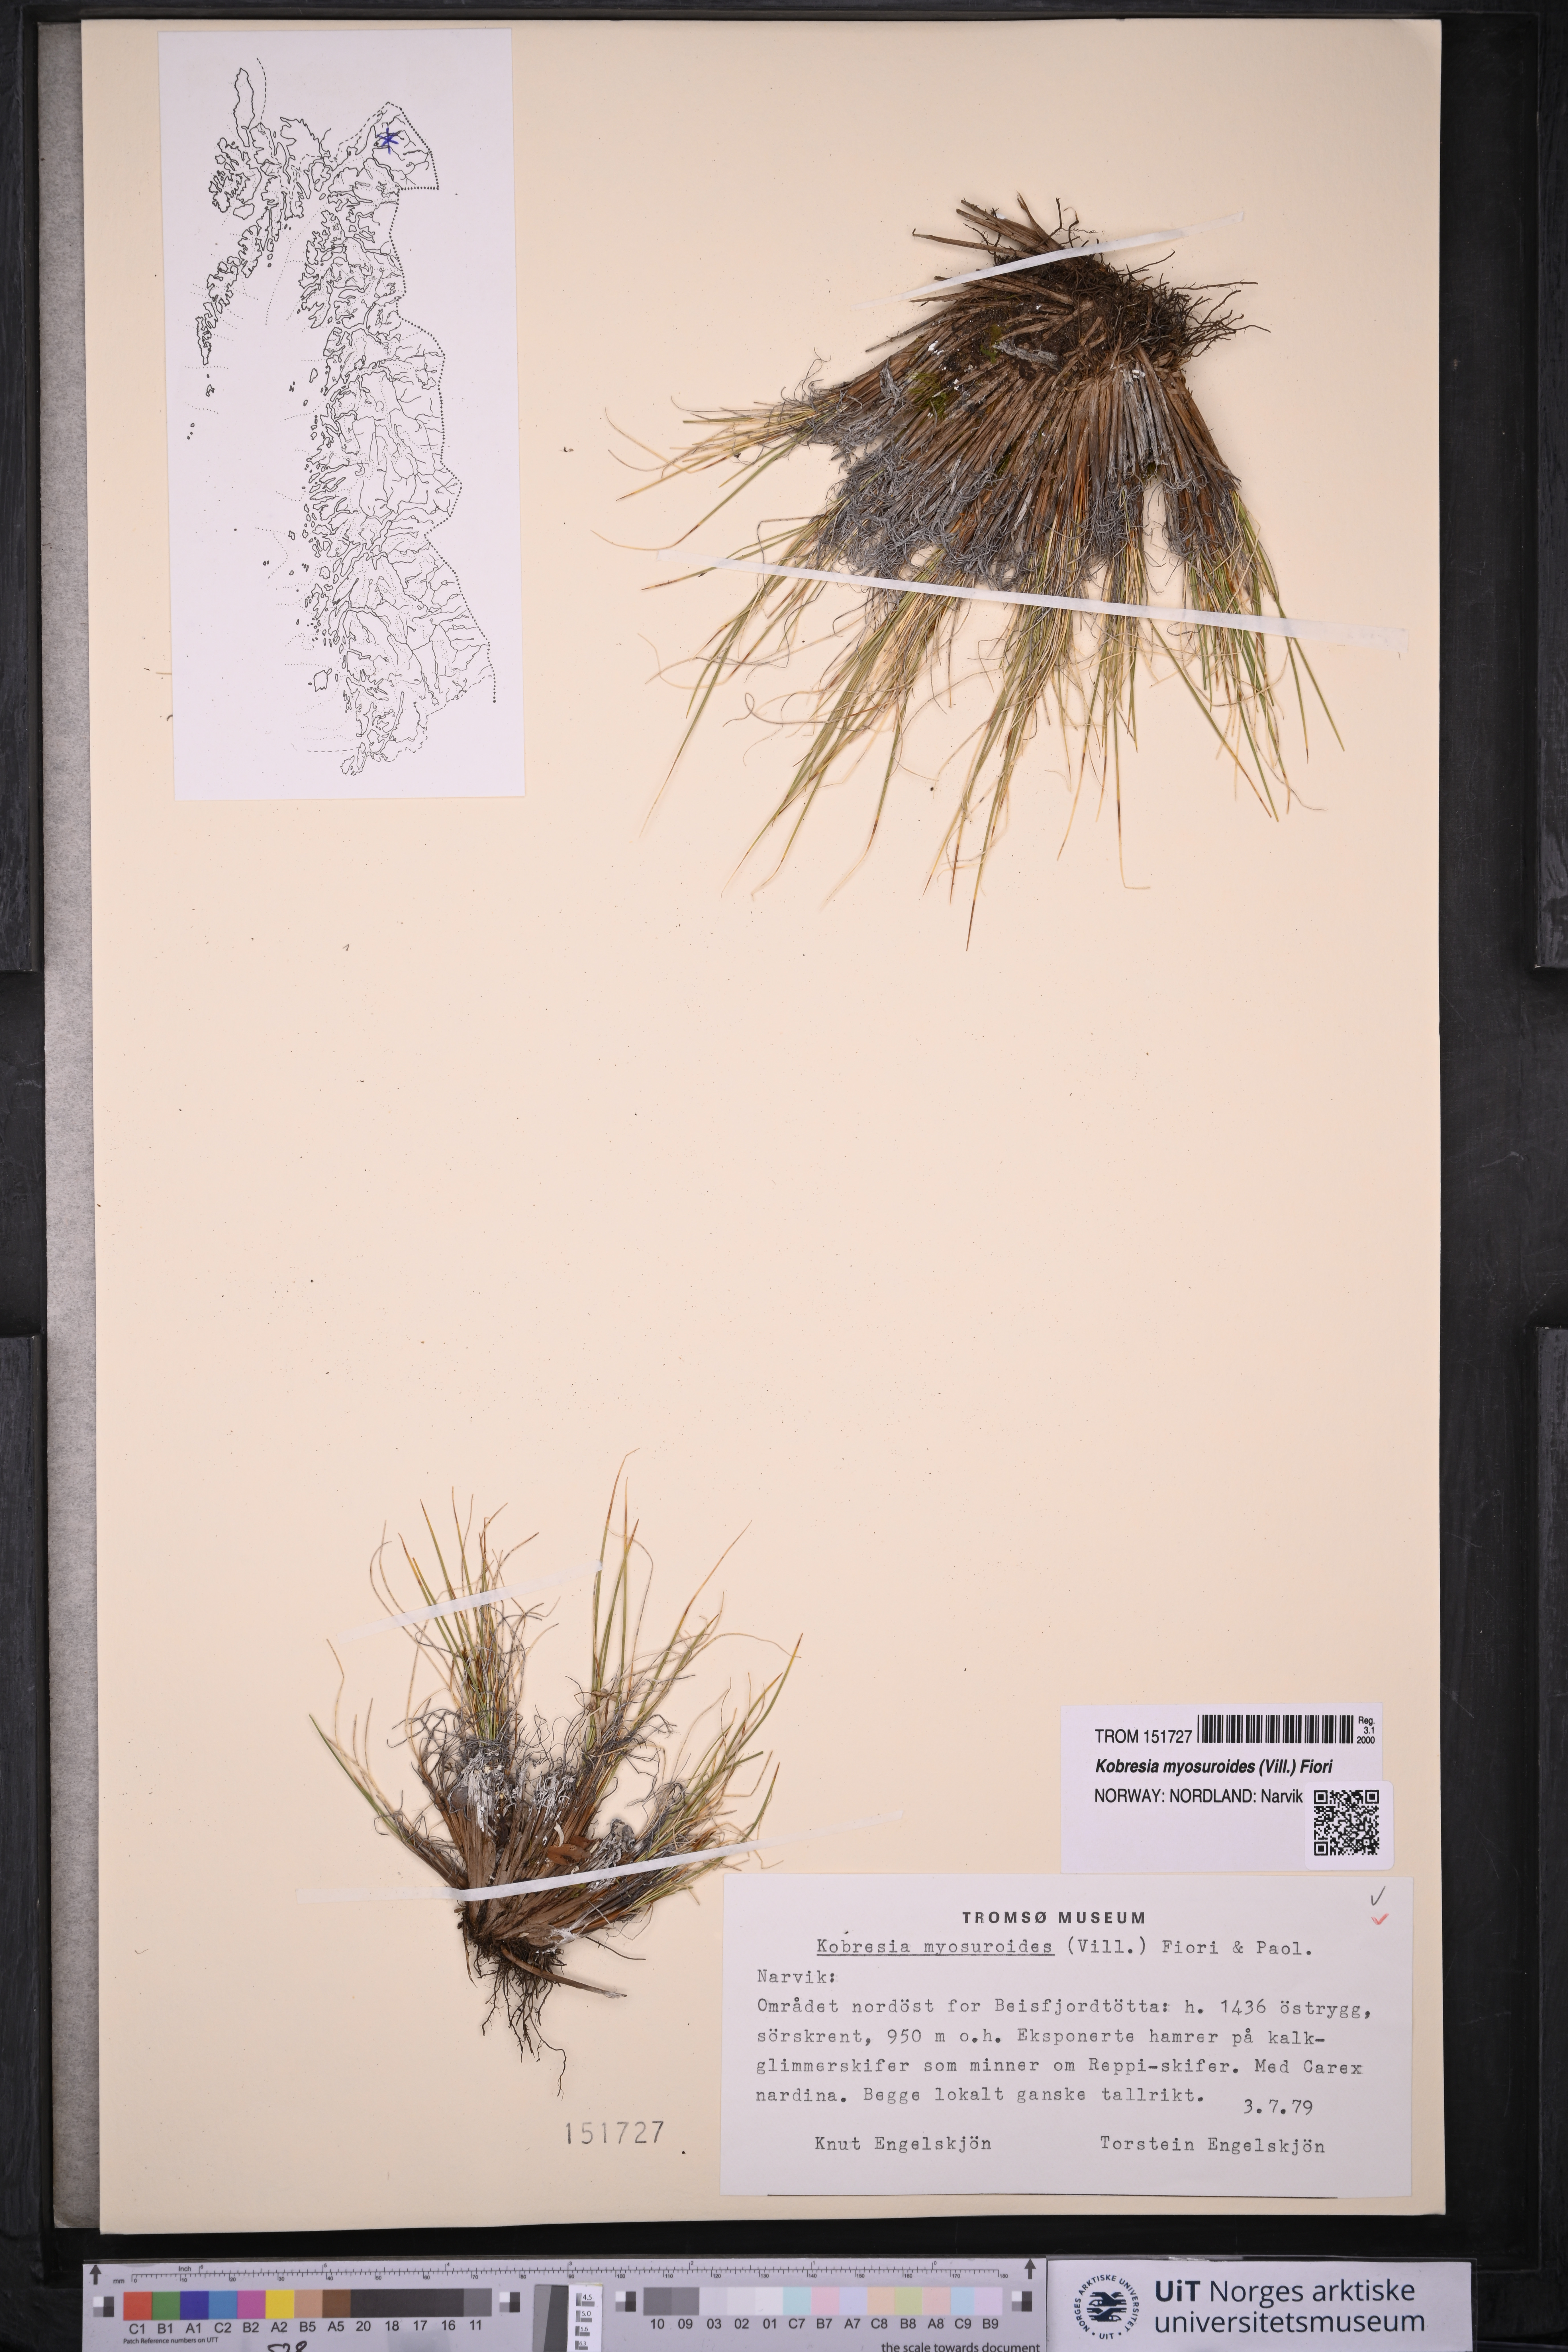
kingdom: Plantae
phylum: Tracheophyta
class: Liliopsida
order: Poales
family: Cyperaceae
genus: Carex
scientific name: Carex myosuroides
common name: Bellard's bog sedge
